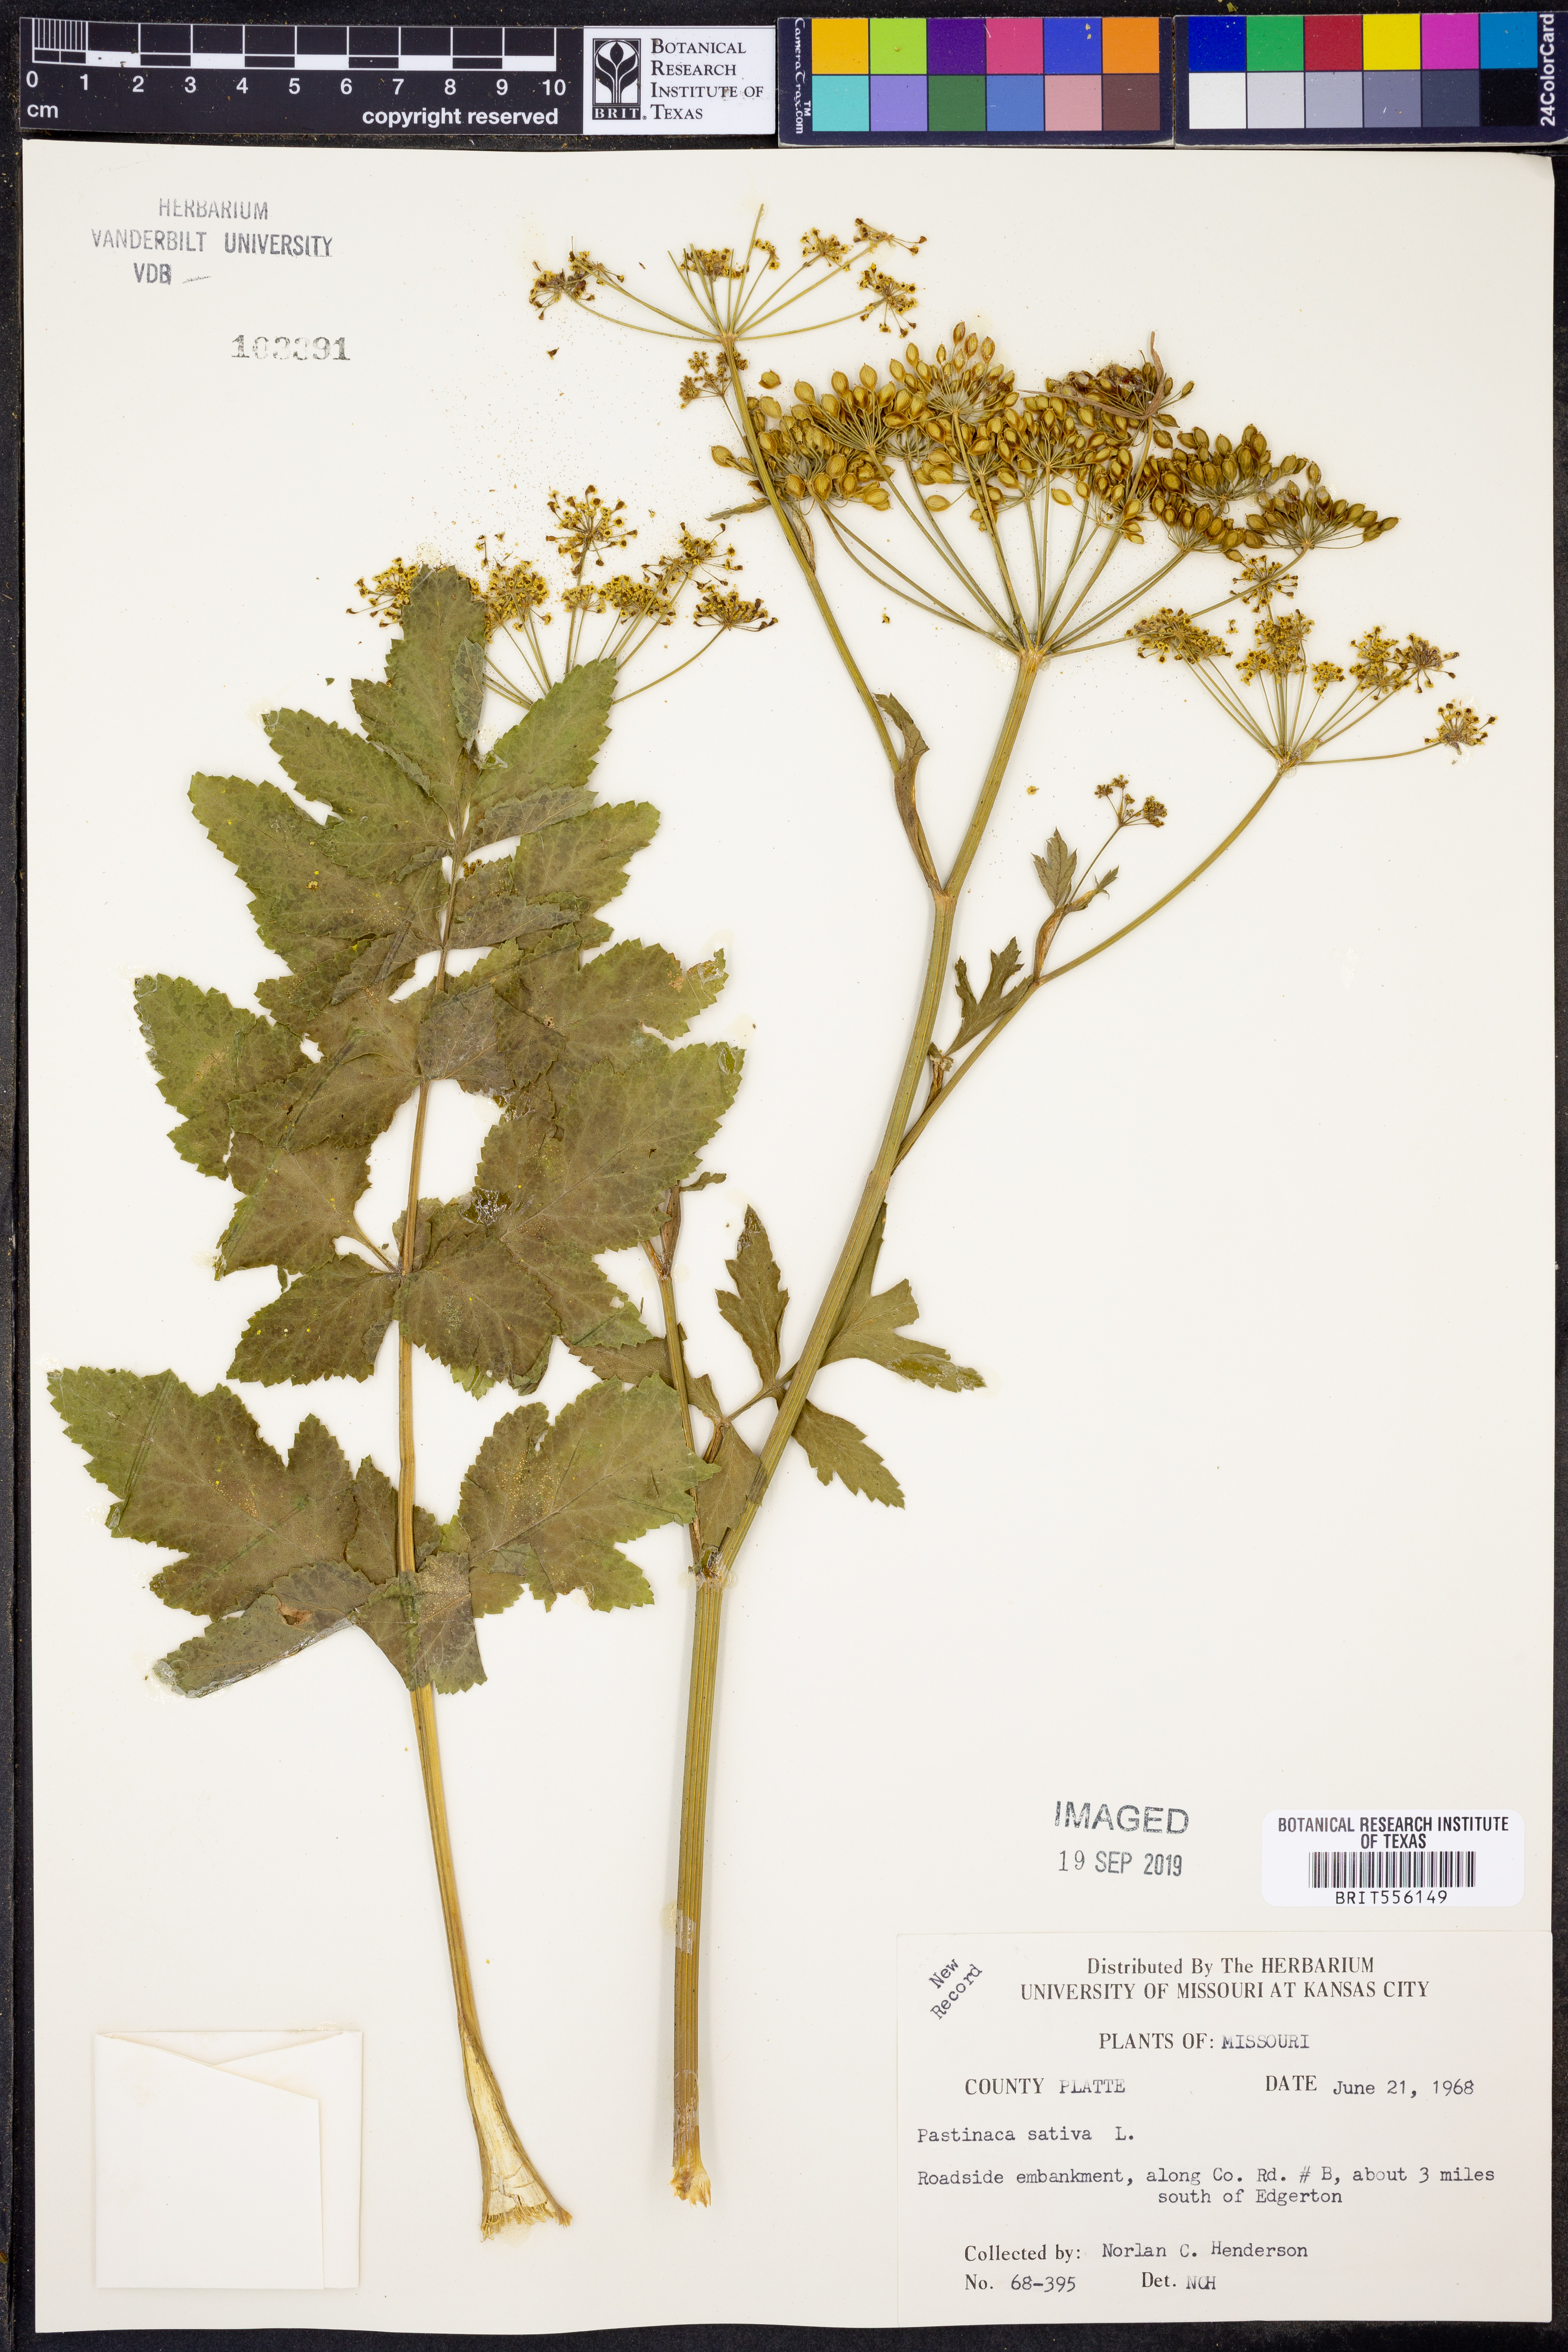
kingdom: Plantae
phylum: Tracheophyta
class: Magnoliopsida
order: Apiales
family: Apiaceae
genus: Pastinaca
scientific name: Pastinaca sativa
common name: Wild parsnip
